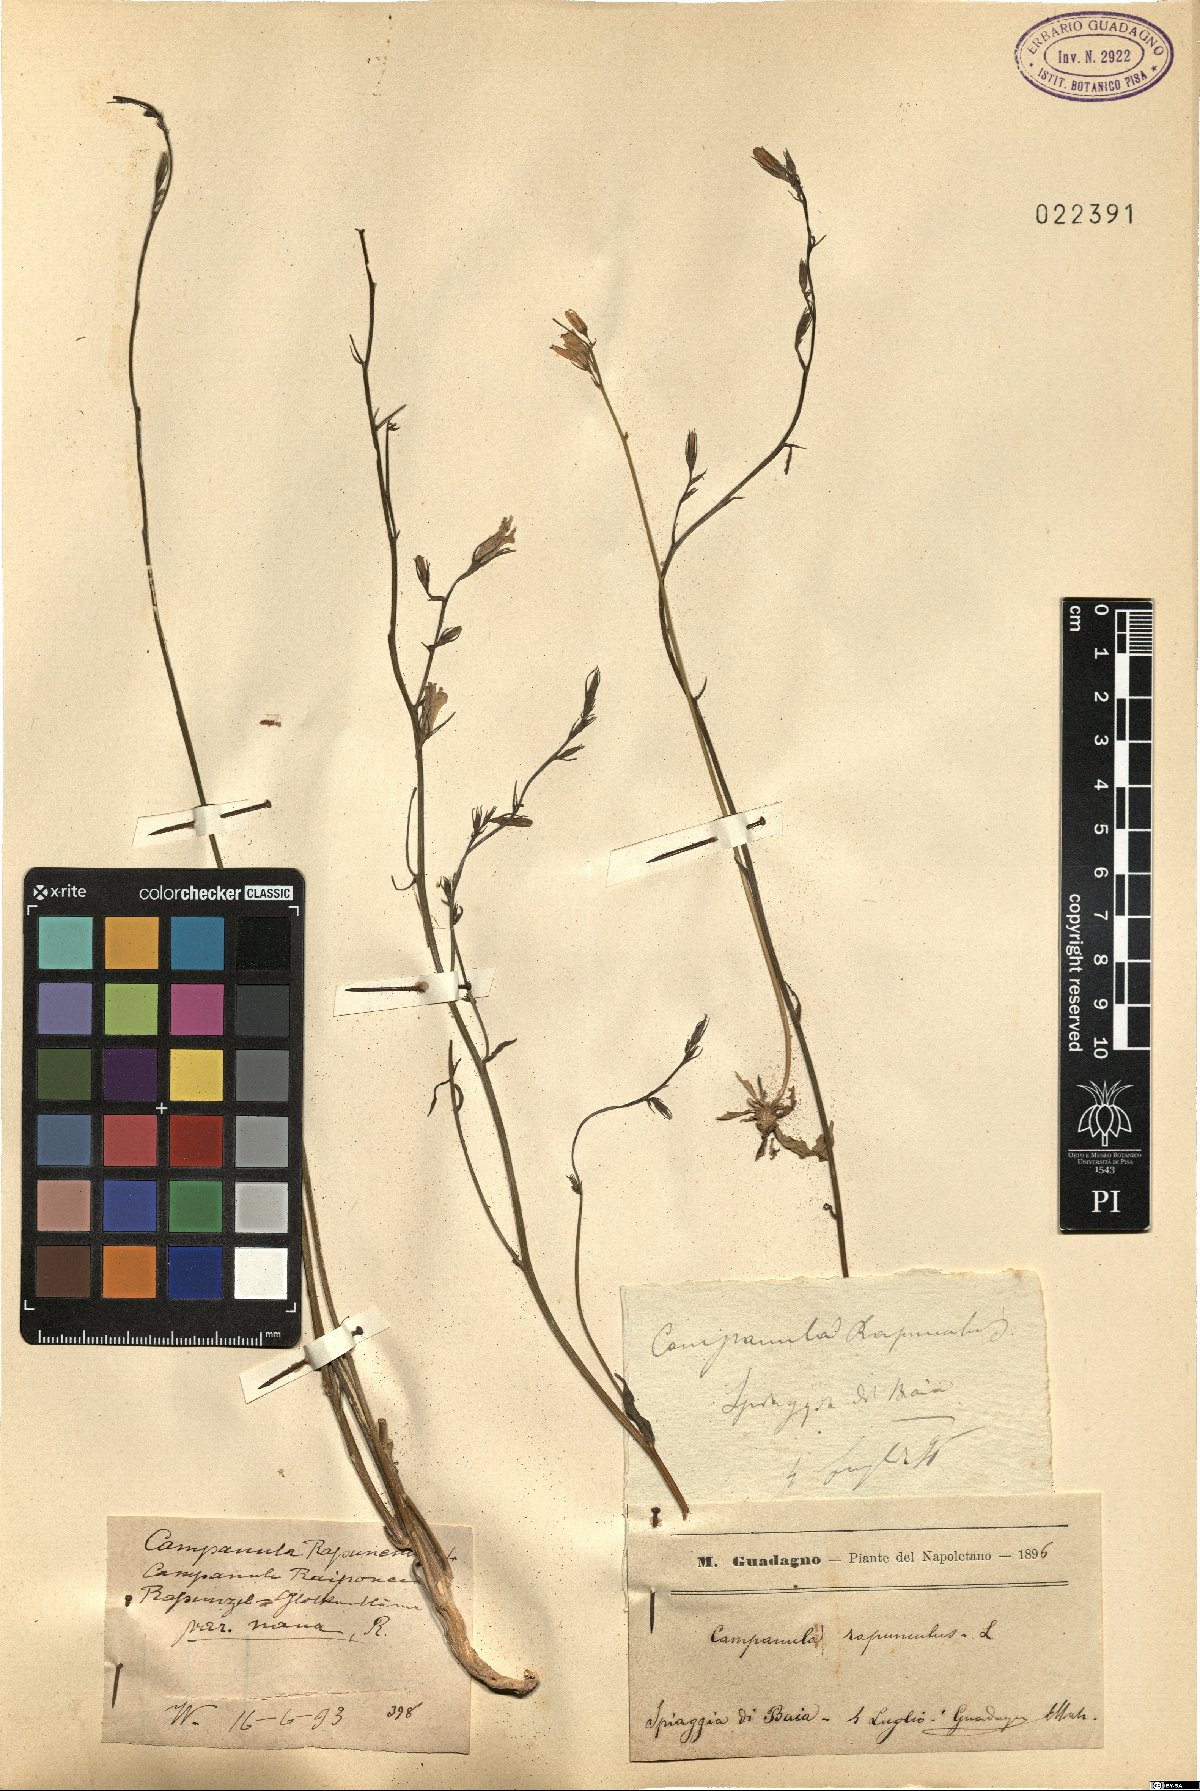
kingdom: Plantae
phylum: Tracheophyta
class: Magnoliopsida
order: Asterales
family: Campanulaceae
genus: Campanula
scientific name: Campanula rapunculus
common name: Rampion bellflower
